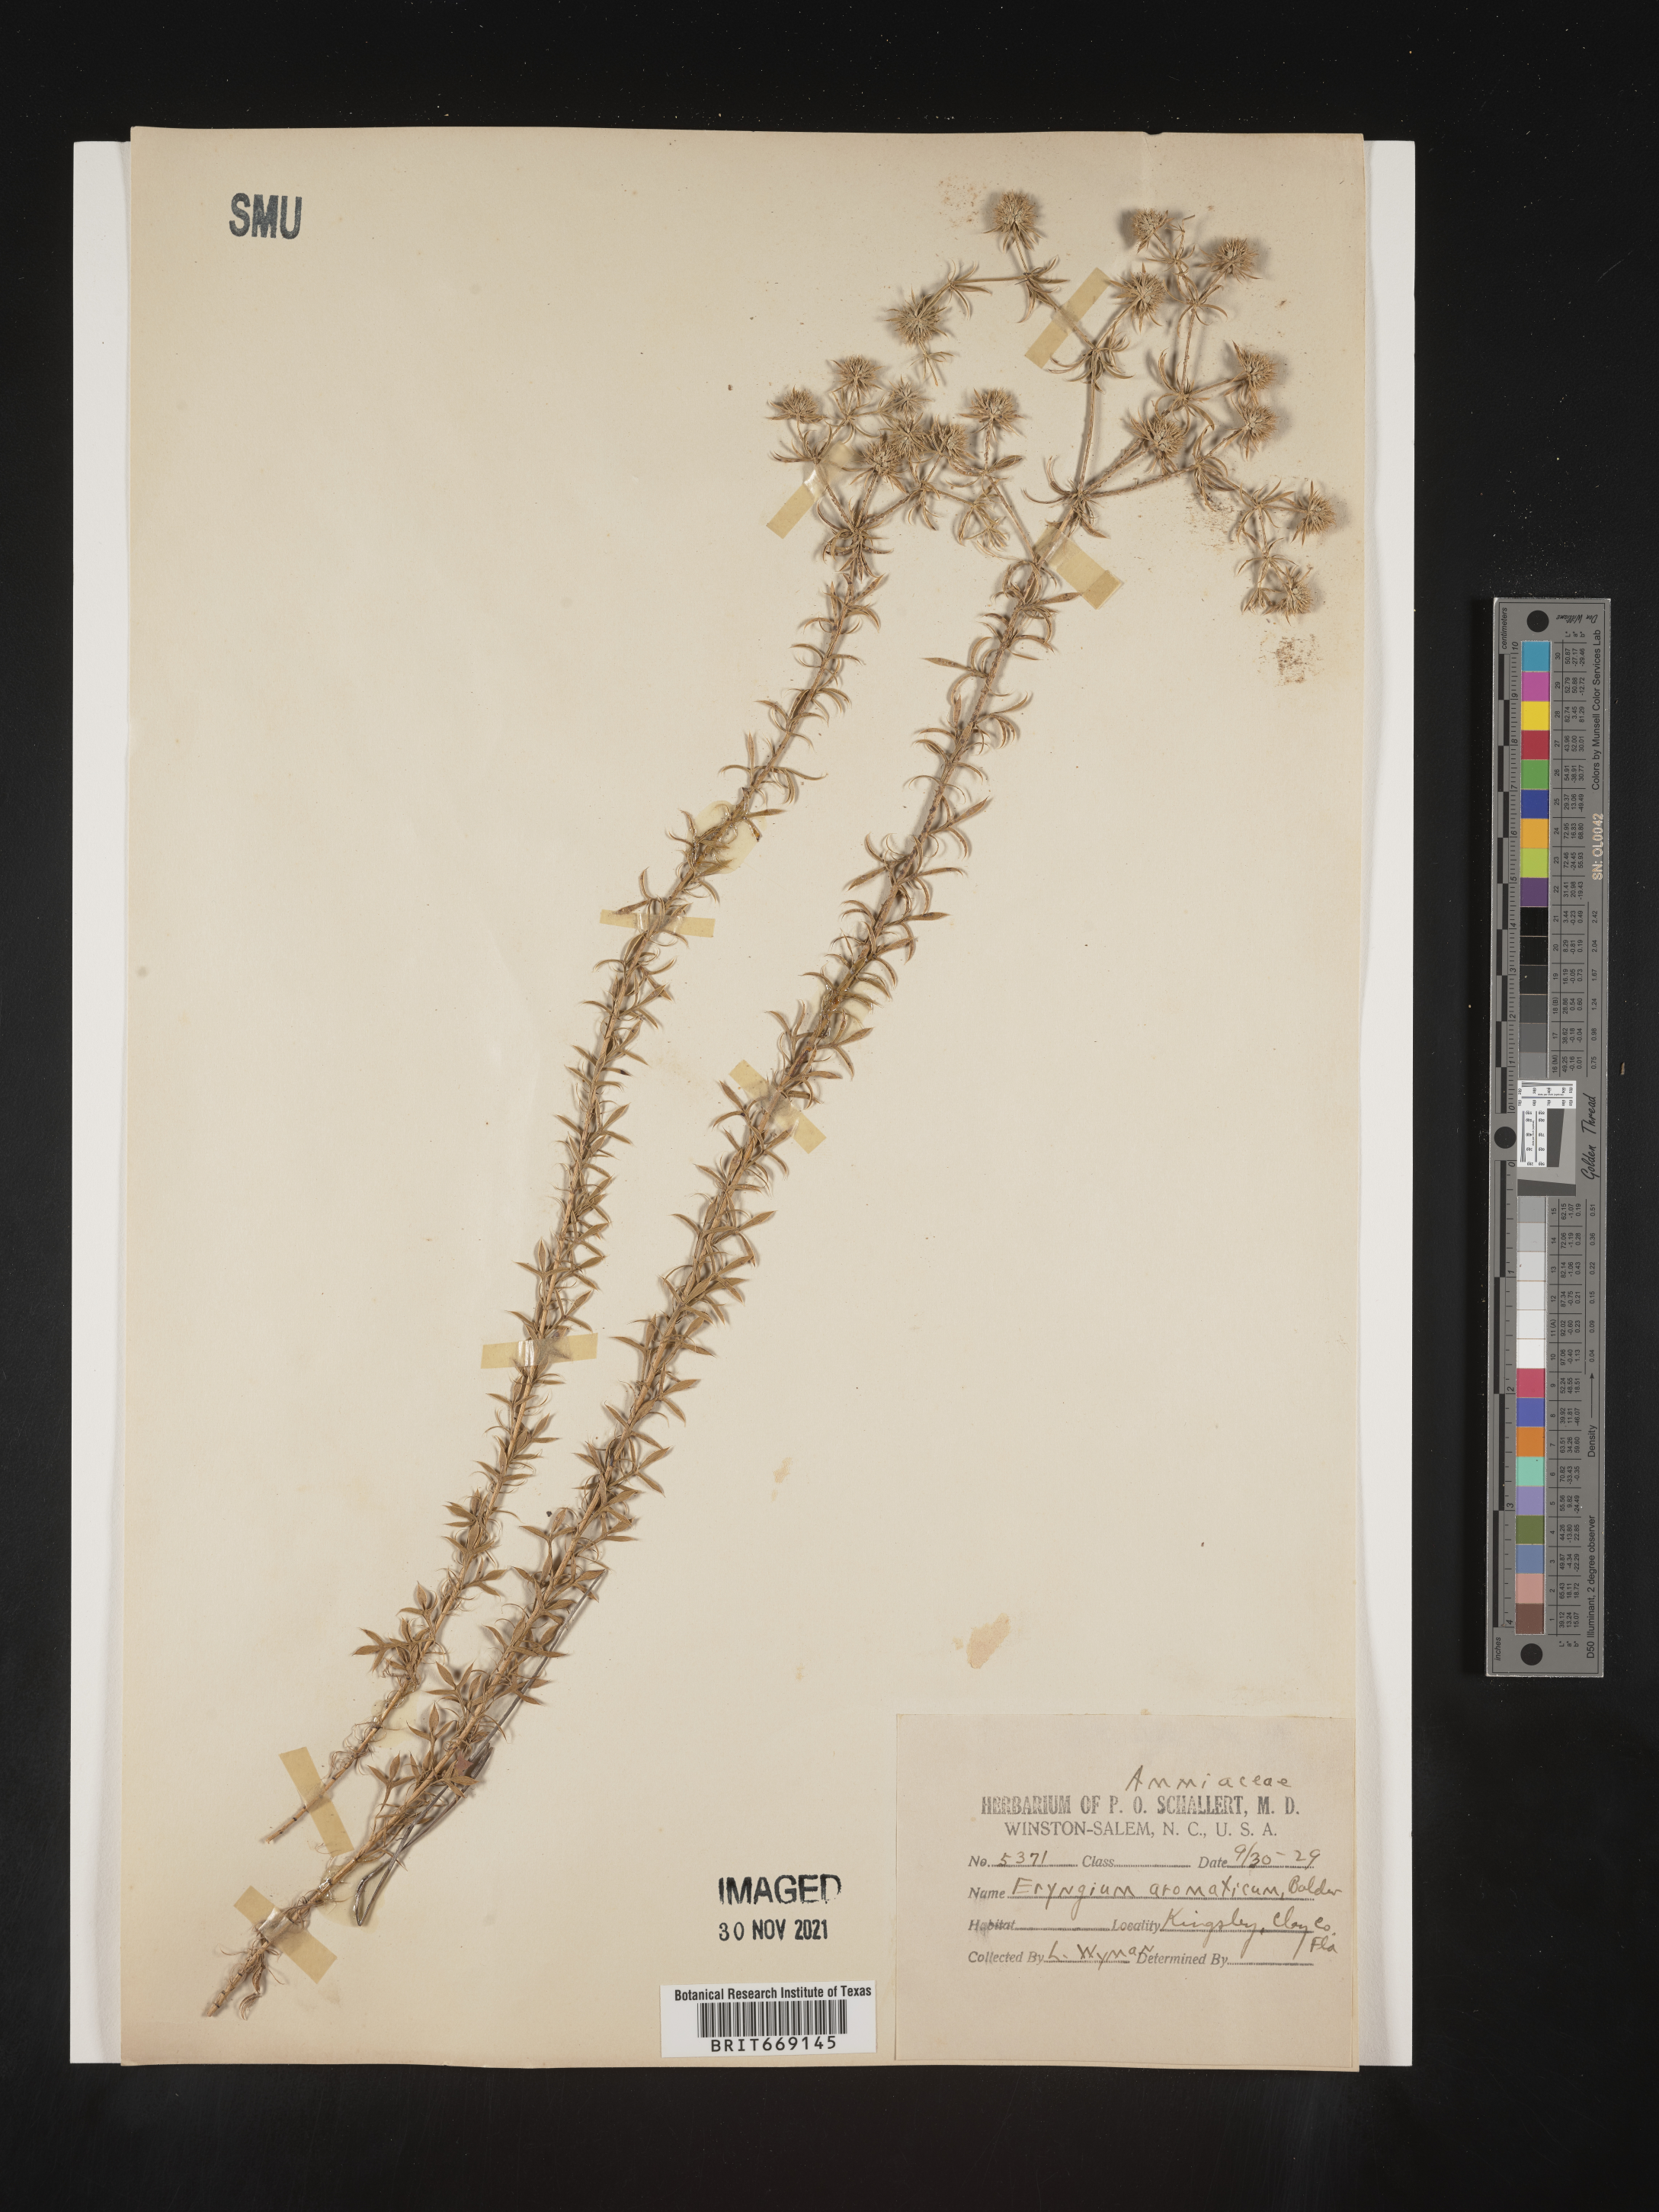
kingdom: Plantae
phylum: Tracheophyta
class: Magnoliopsida
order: Apiales
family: Apiaceae
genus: Eryngium
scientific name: Eryngium aromaticum
